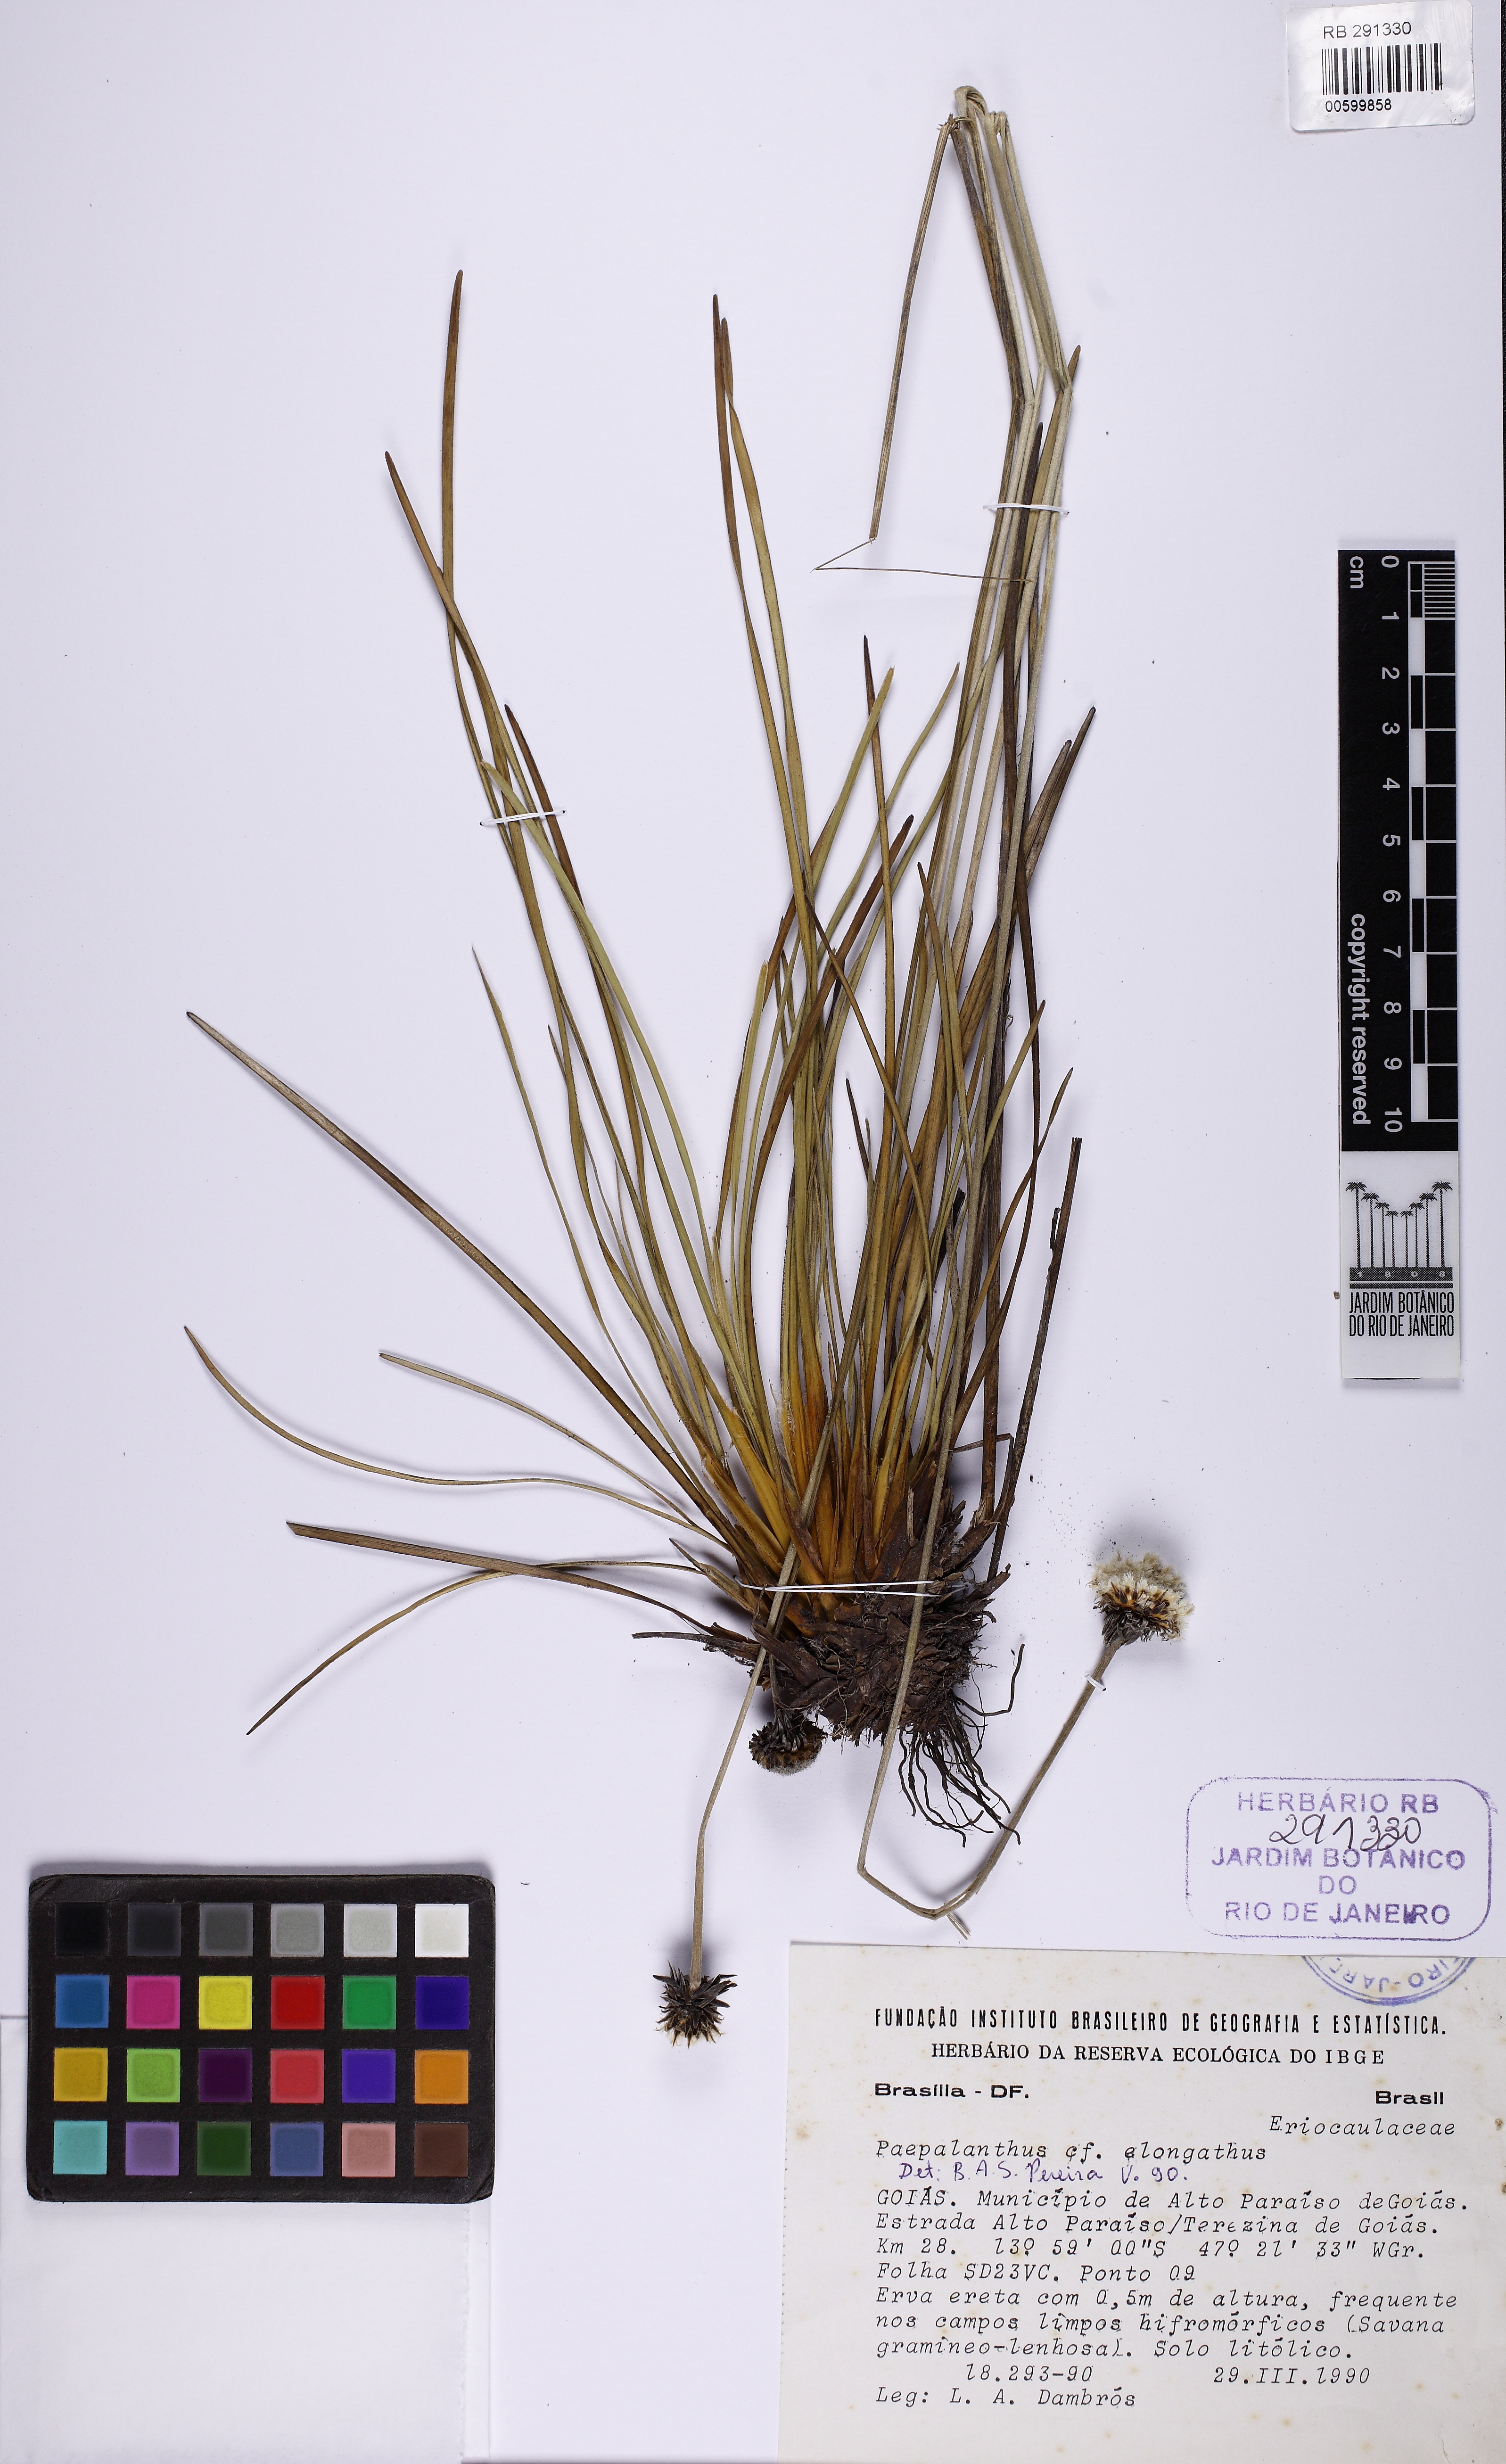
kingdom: Plantae
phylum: Tracheophyta
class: Liliopsida
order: Poales
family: Eriocaulaceae
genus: Paepalanthus
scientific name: Paepalanthus longibracteatus
